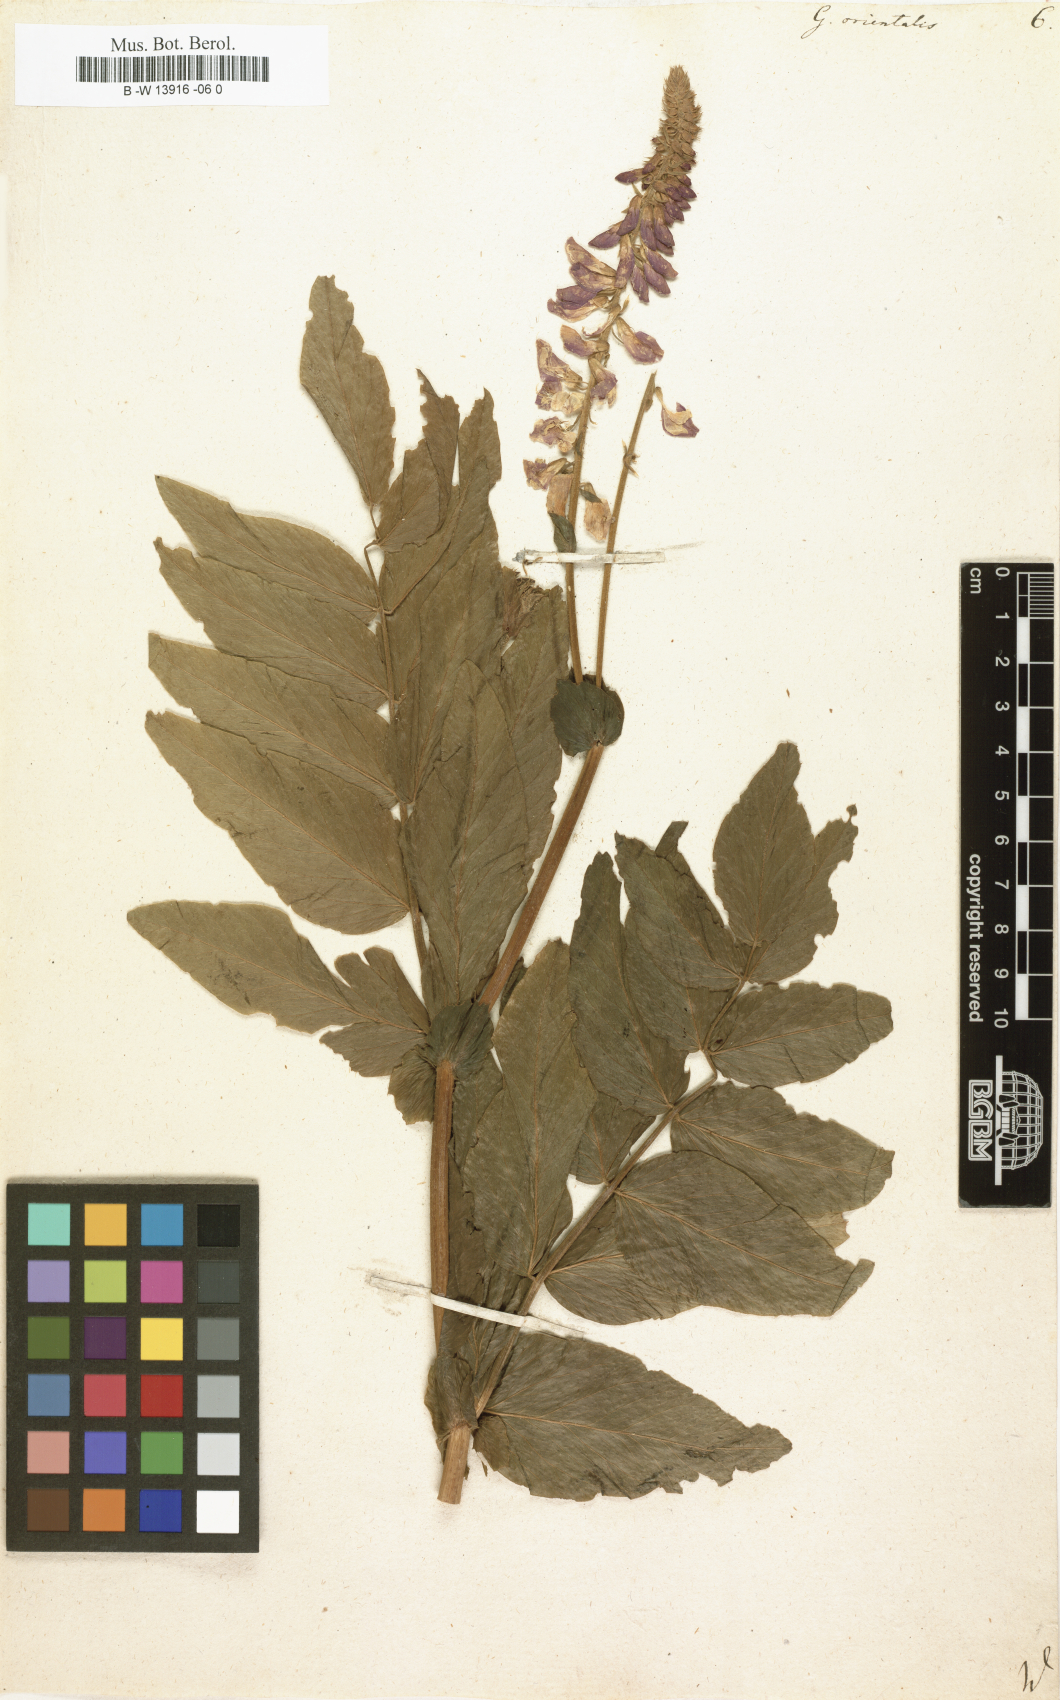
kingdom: Plantae
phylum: Tracheophyta
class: Magnoliopsida
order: Fabales
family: Fabaceae
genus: Galega
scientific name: Galega orientalis
